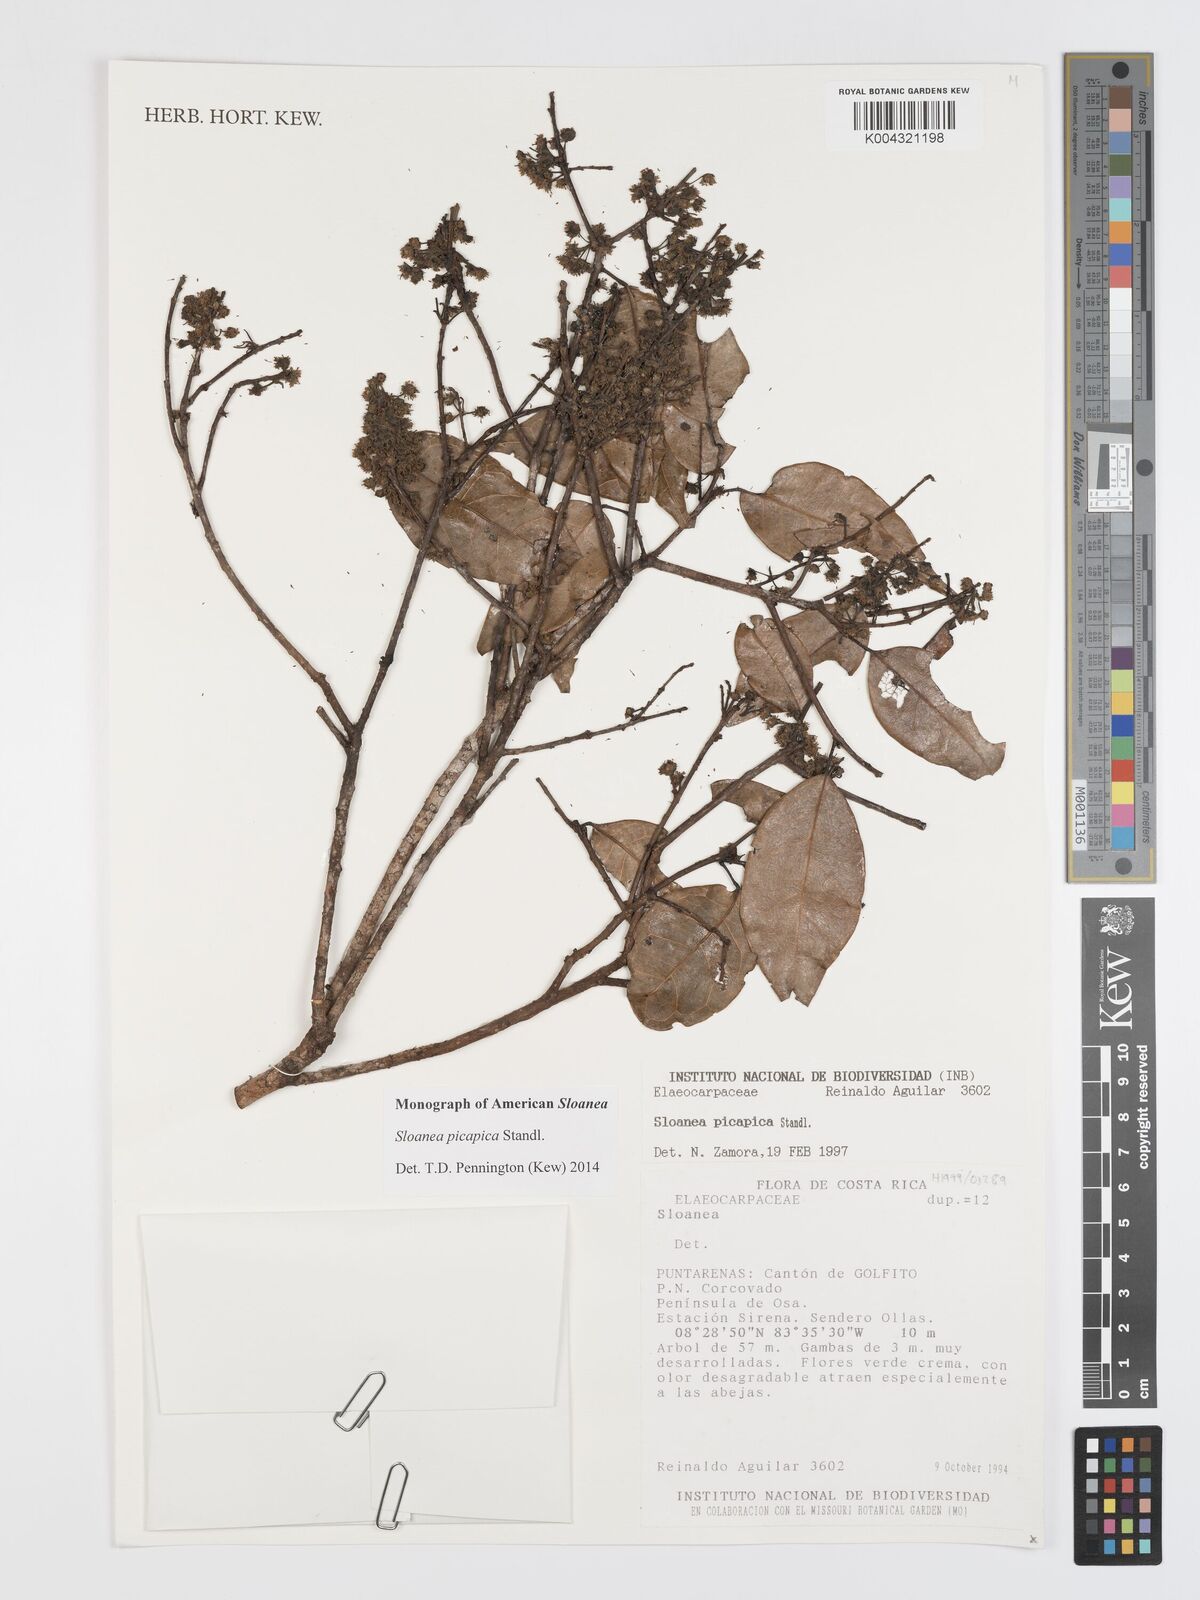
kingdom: Plantae
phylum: Tracheophyta
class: Magnoliopsida
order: Oxalidales
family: Elaeocarpaceae
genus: Sloanea
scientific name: Sloanea picapica
